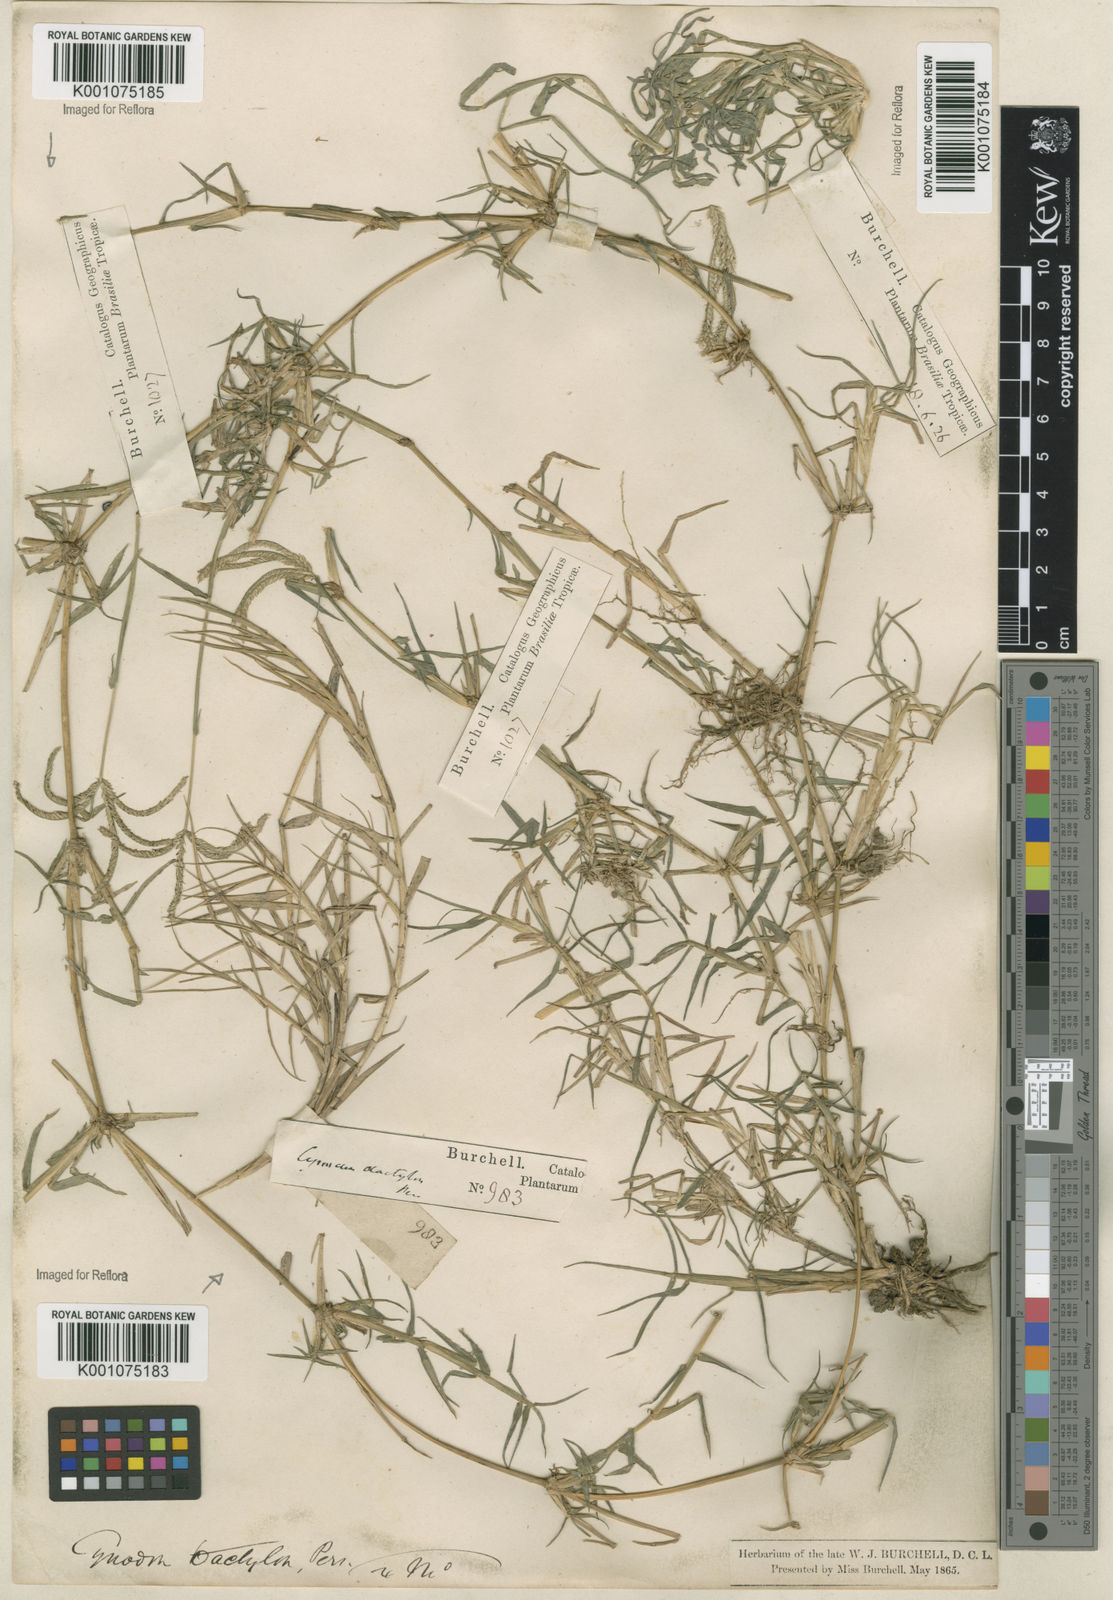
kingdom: Plantae
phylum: Tracheophyta
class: Liliopsida
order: Poales
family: Poaceae
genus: Cynodon
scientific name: Cynodon dactylon
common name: Bermuda grass
